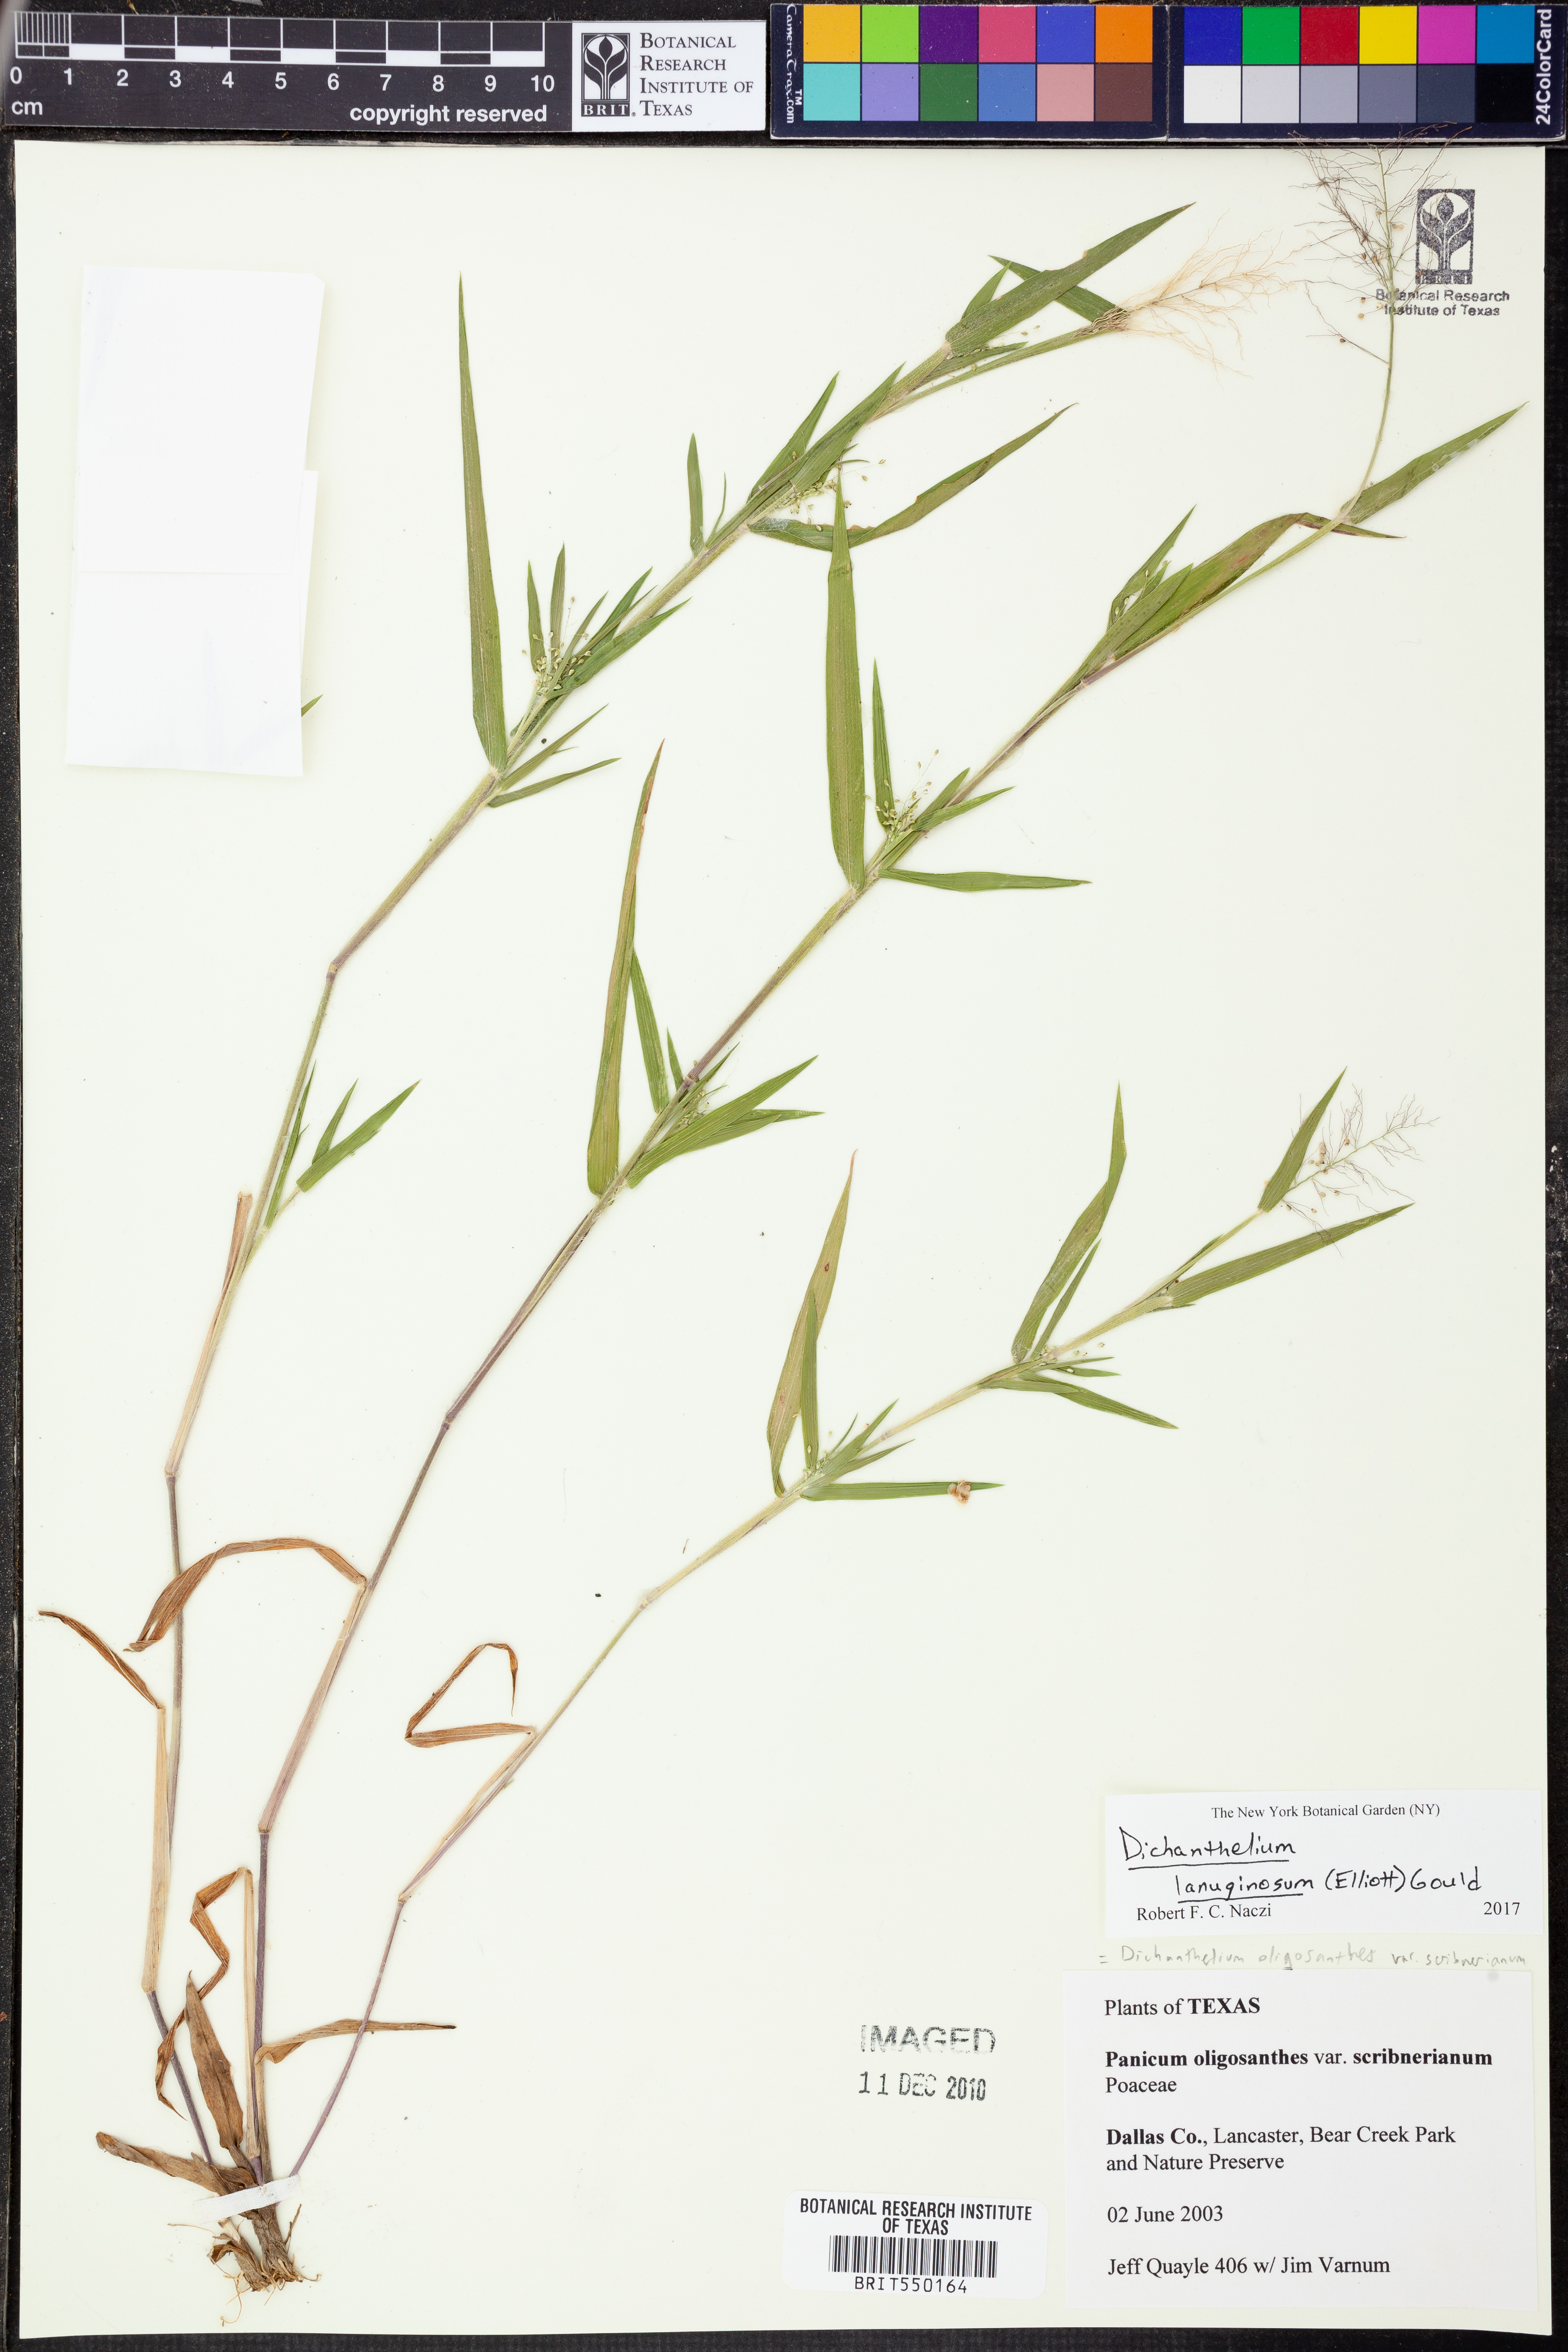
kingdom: Plantae
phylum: Tracheophyta
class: Liliopsida
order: Poales
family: Poaceae
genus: Dichanthelium
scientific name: Dichanthelium lanuginosum
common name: Woolly panicgrass
